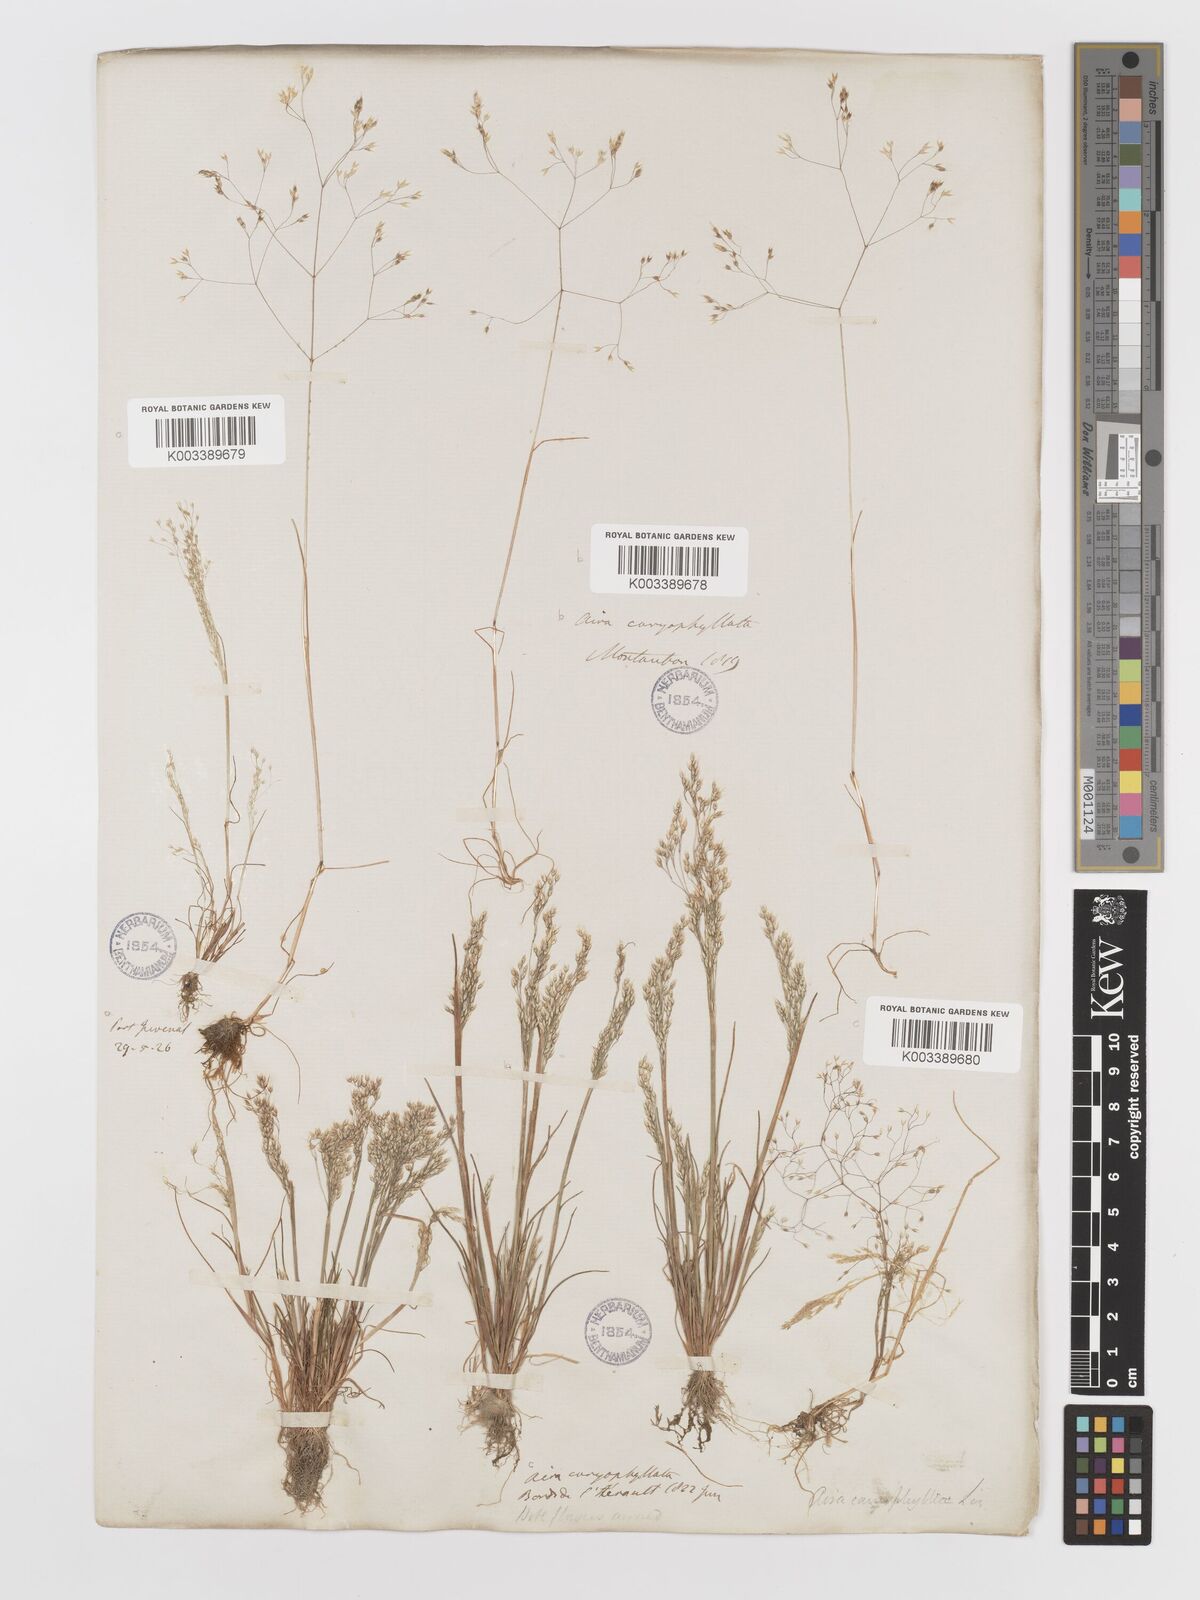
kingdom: Plantae
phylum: Tracheophyta
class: Liliopsida
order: Poales
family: Poaceae
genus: Aira
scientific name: Aira caryophyllea
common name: Silver hairgrass
